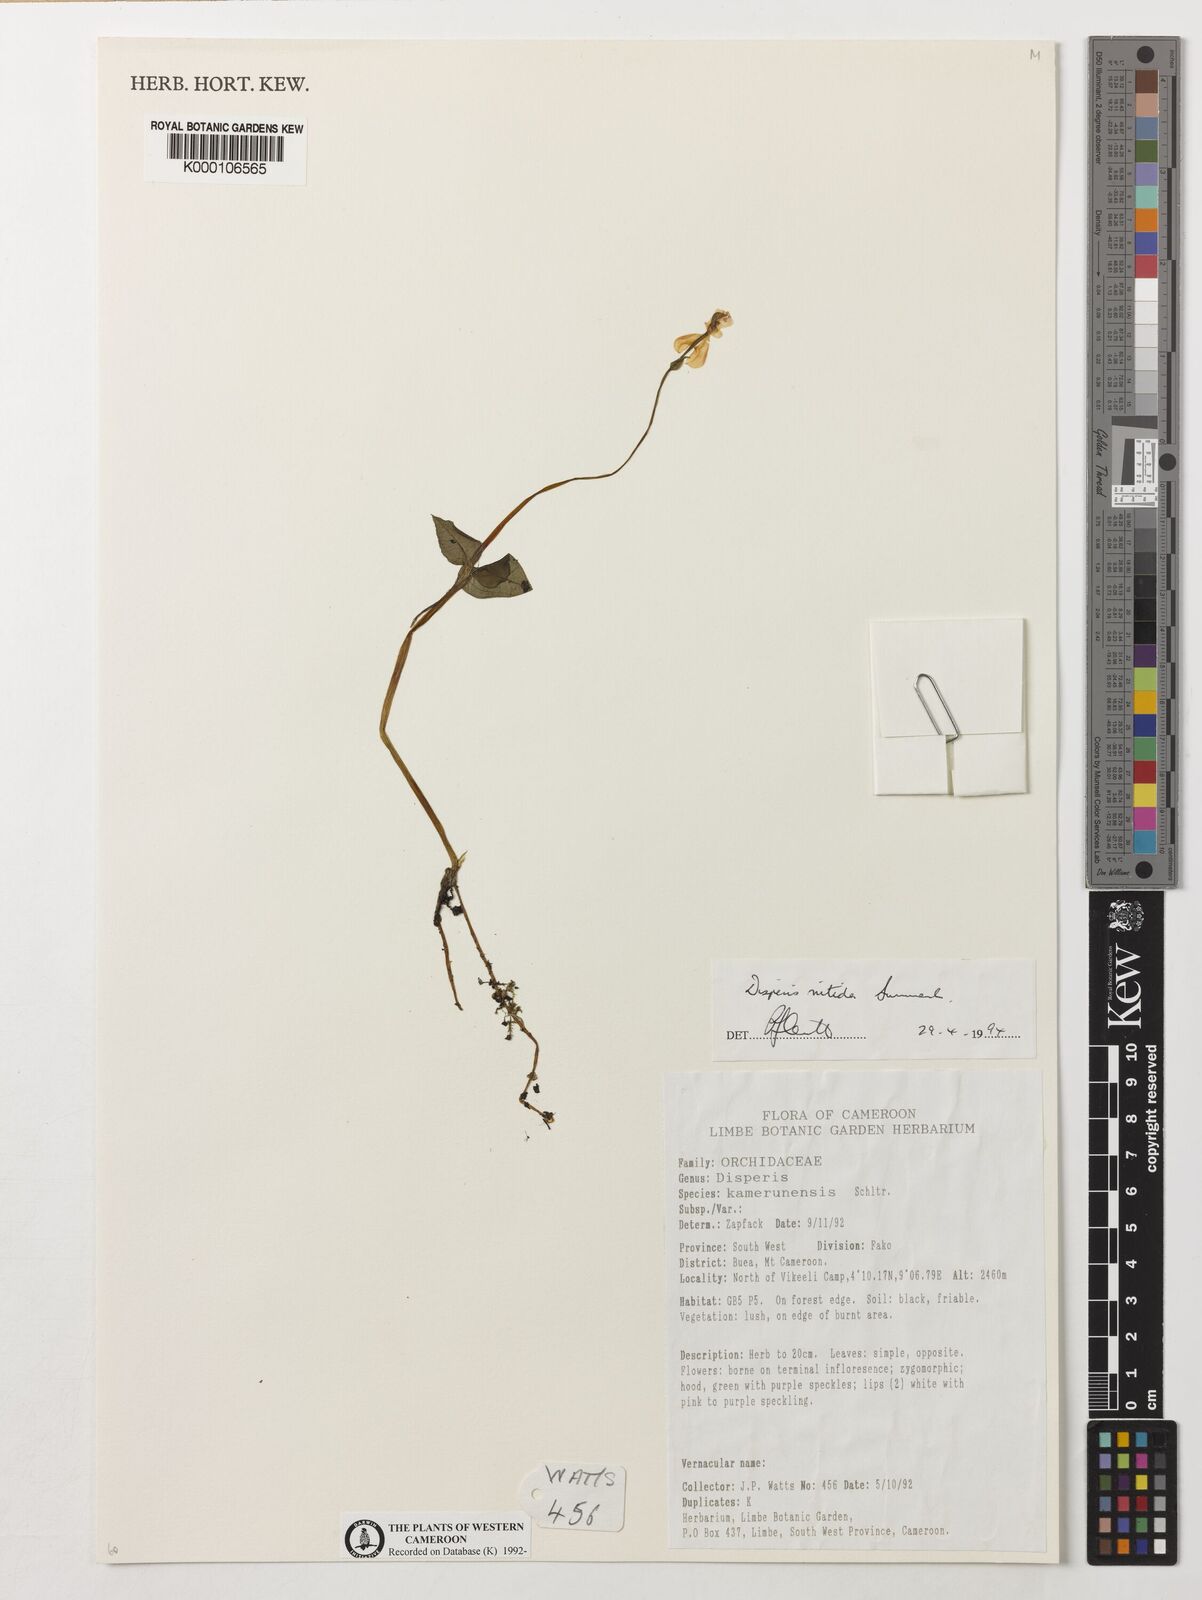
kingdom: Plantae
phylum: Tracheophyta
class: Liliopsida
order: Asparagales
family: Orchidaceae
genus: Disperis
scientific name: Disperis nitida
